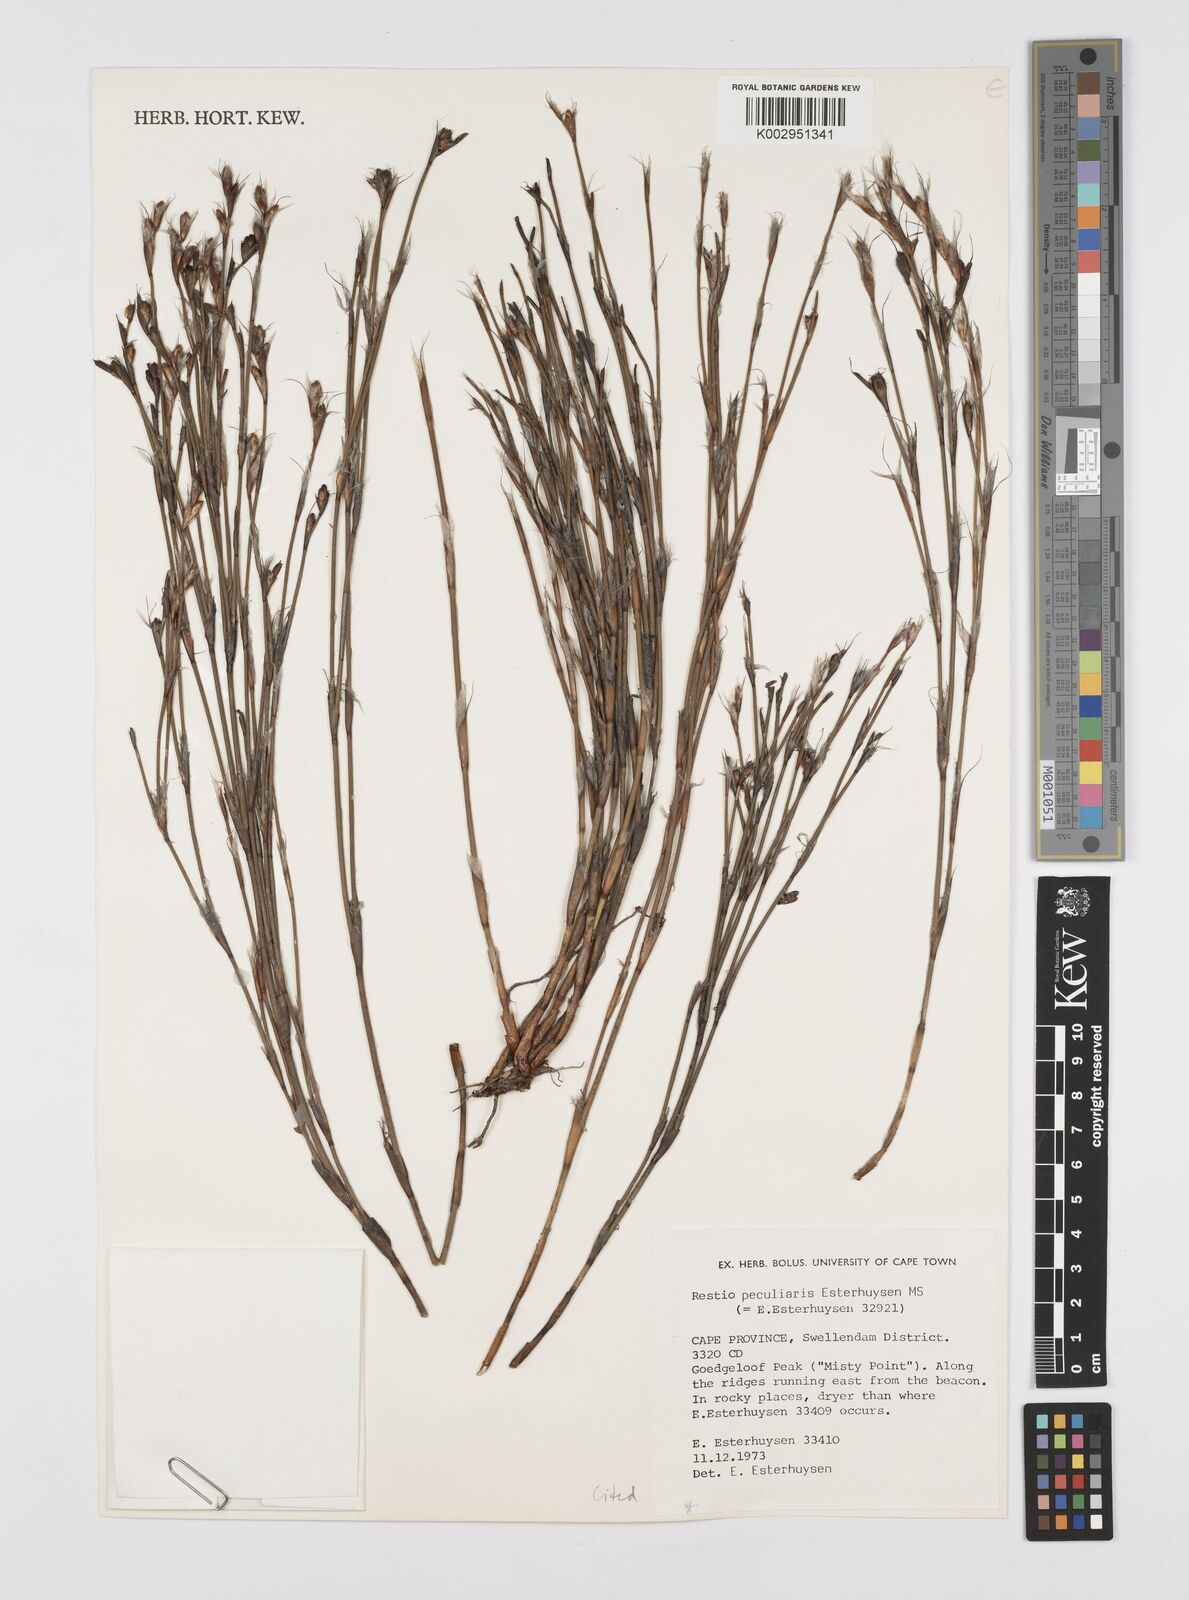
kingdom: Plantae
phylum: Tracheophyta
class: Liliopsida
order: Poales
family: Restionaceae
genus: Restio
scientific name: Restio peculiaris
